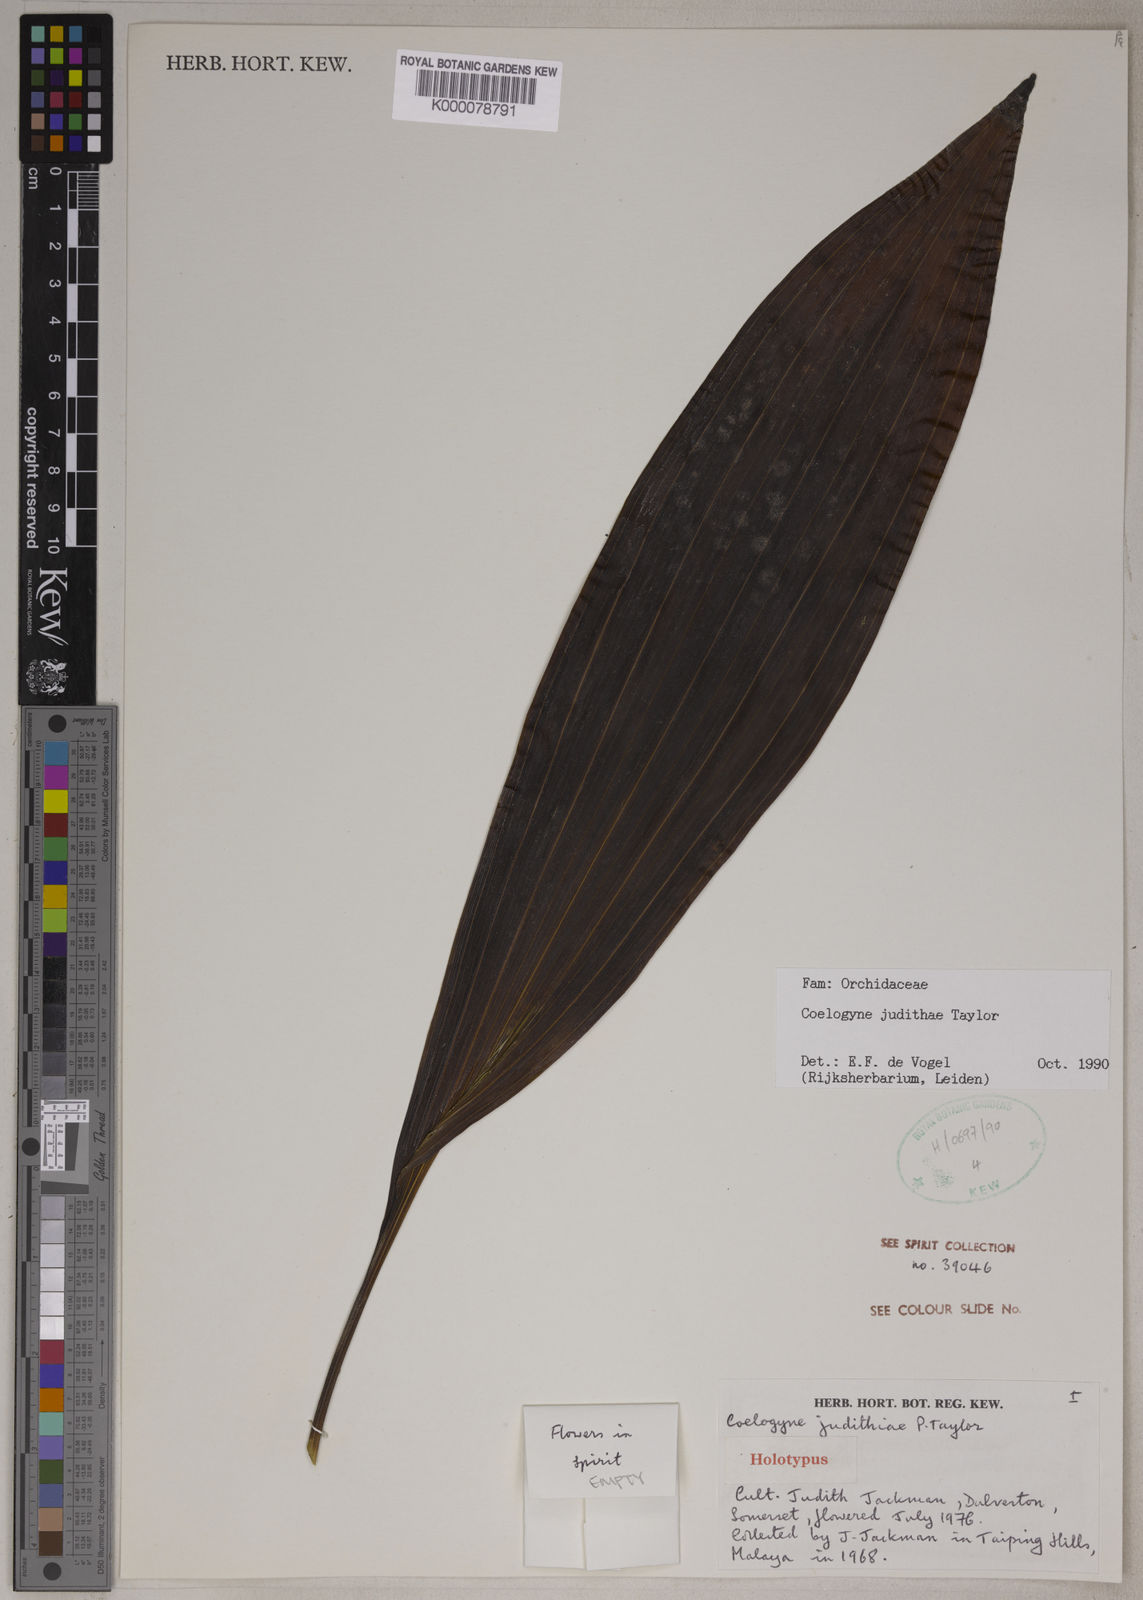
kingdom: Plantae
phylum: Tracheophyta
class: Liliopsida
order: Asparagales
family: Orchidaceae
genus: Coelogyne
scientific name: Coelogyne rhabdobulbon
